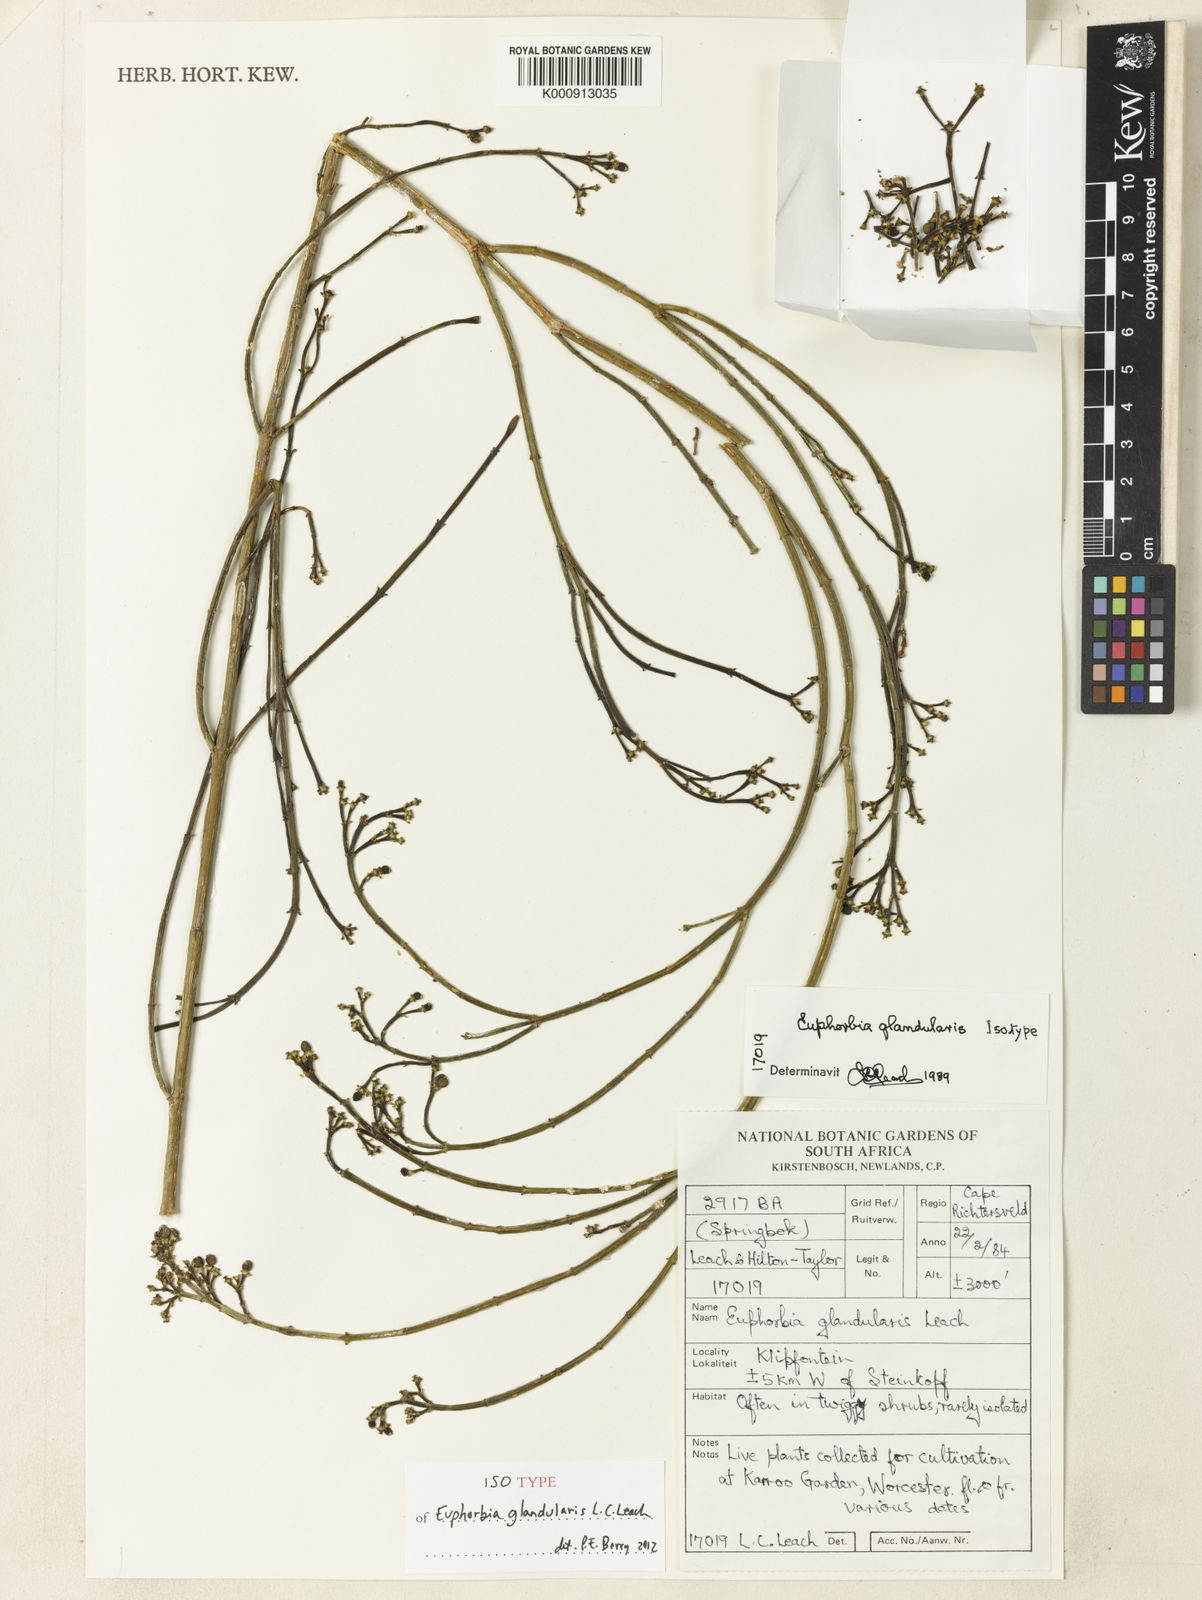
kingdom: Plantae
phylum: Tracheophyta
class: Magnoliopsida
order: Malpighiales
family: Euphorbiaceae
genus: Euphorbia
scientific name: Euphorbia exilis
